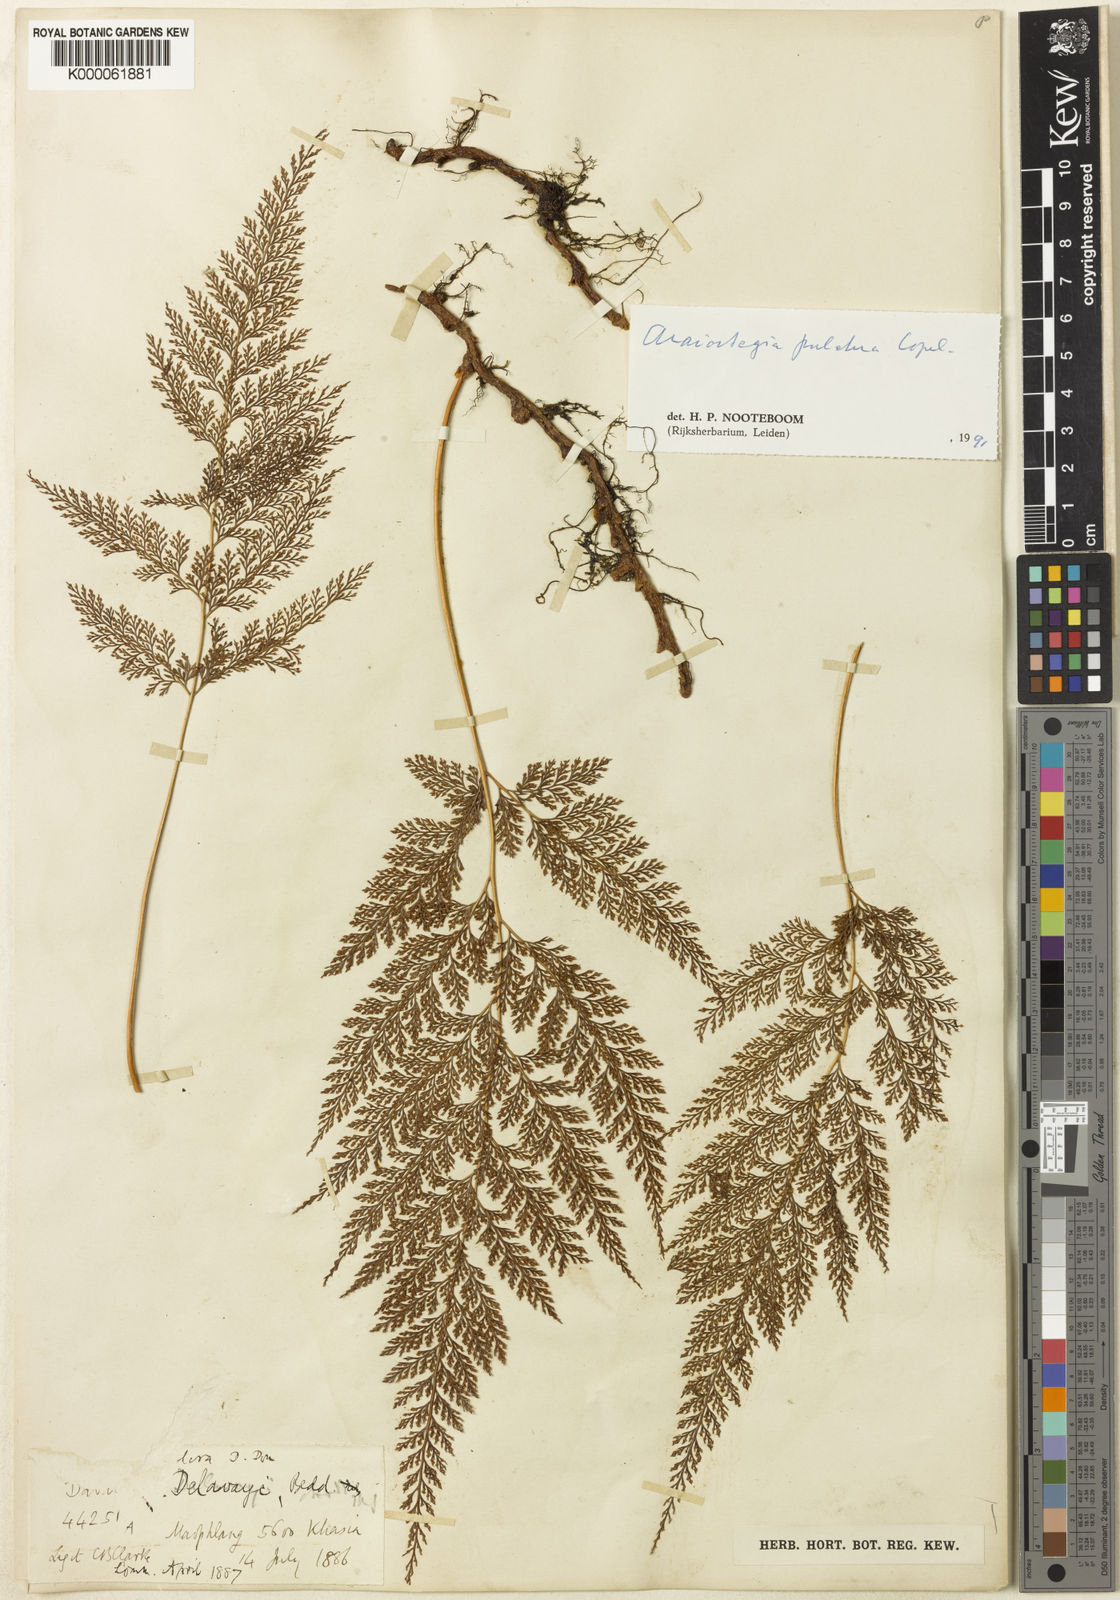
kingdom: Plantae
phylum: Tracheophyta
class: Polypodiopsida
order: Polypodiales
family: Davalliaceae
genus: Davallodes
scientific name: Davallodes pulchra
